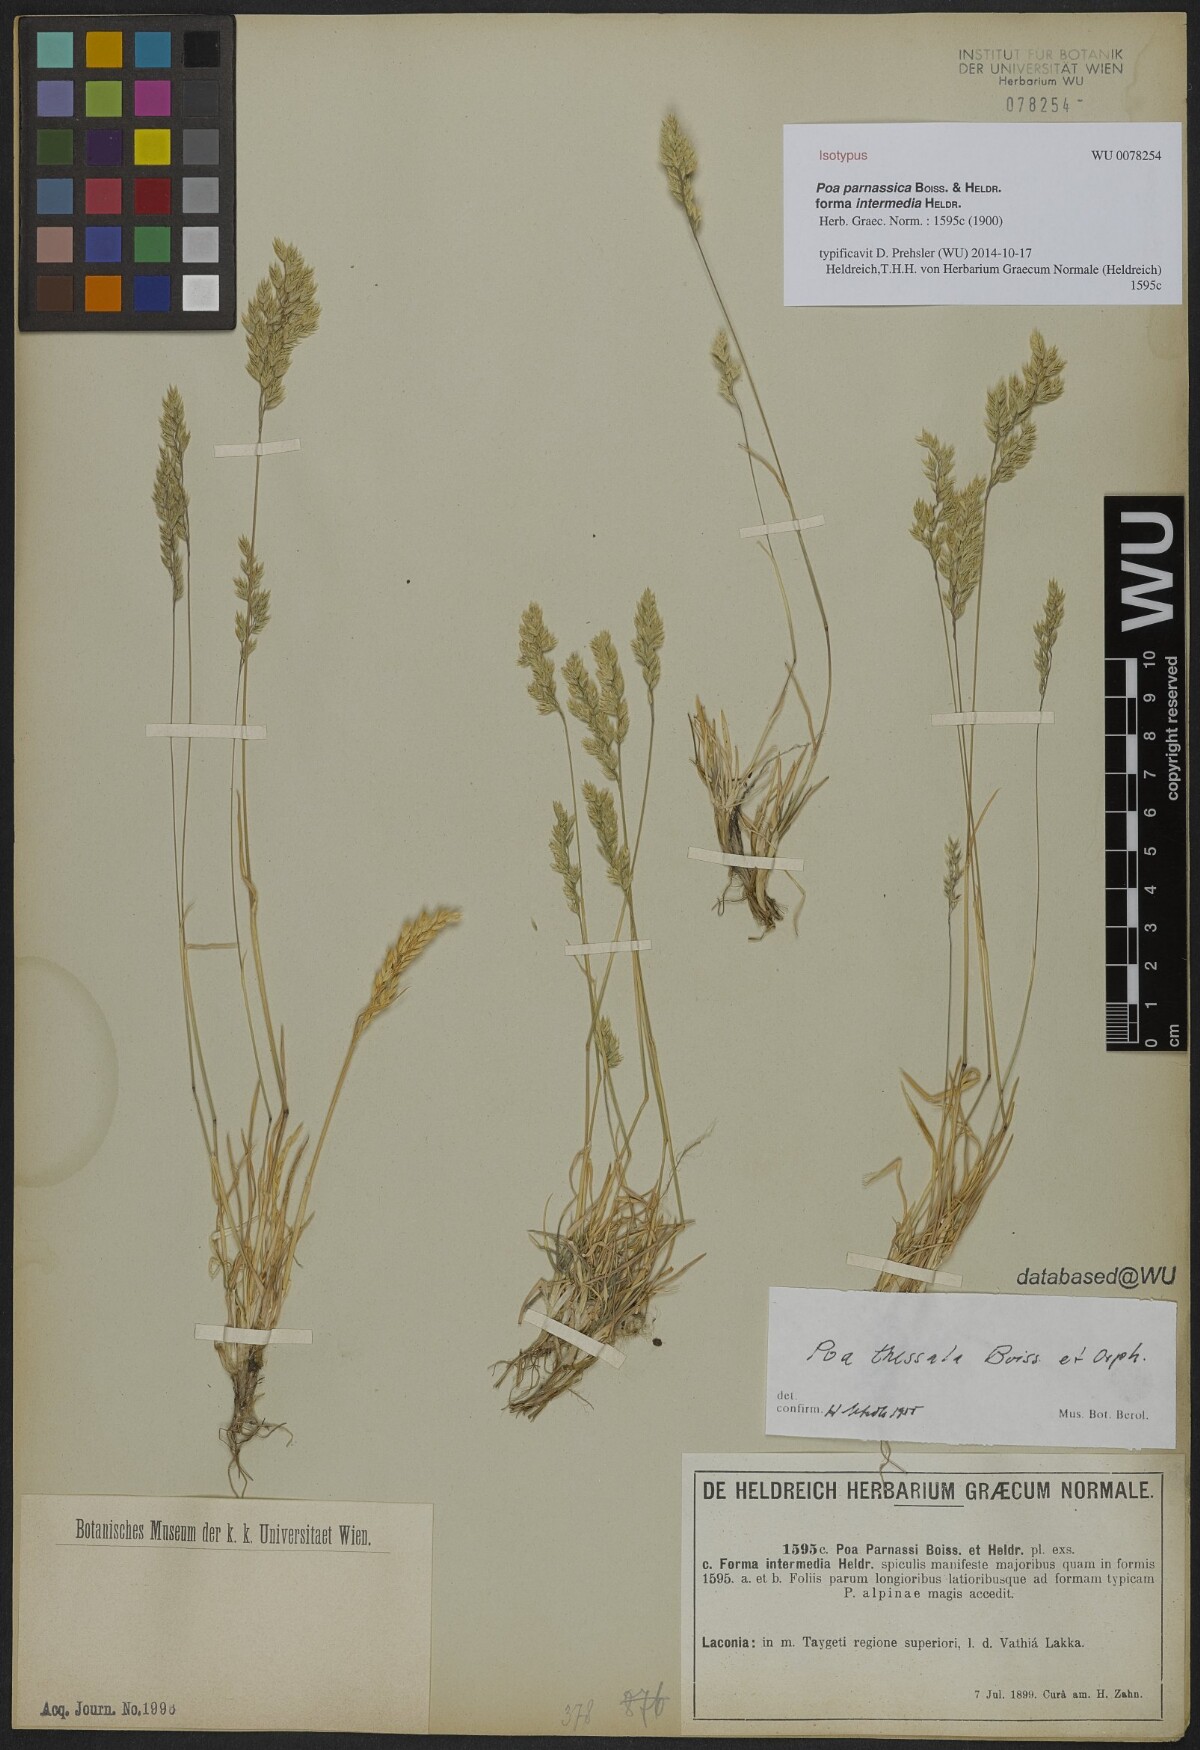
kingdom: Plantae
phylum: Tracheophyta
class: Liliopsida
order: Poales
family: Poaceae
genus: Poa
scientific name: Poa alpina
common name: Alpine bluegrass
